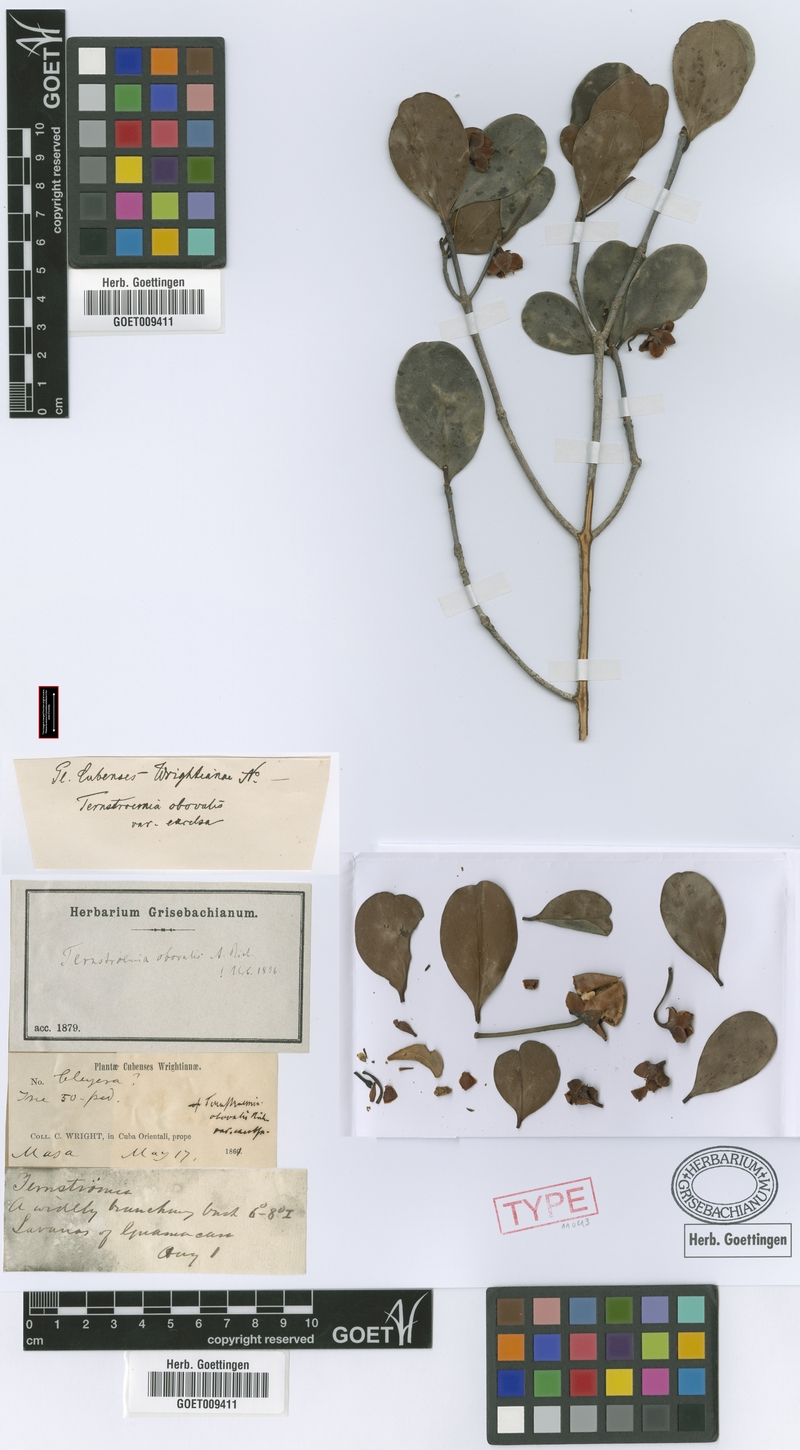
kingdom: Plantae
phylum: Tracheophyta
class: Magnoliopsida
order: Ericales
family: Pentaphylacaceae
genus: Ternstroemia
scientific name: Ternstroemia peduncularis
